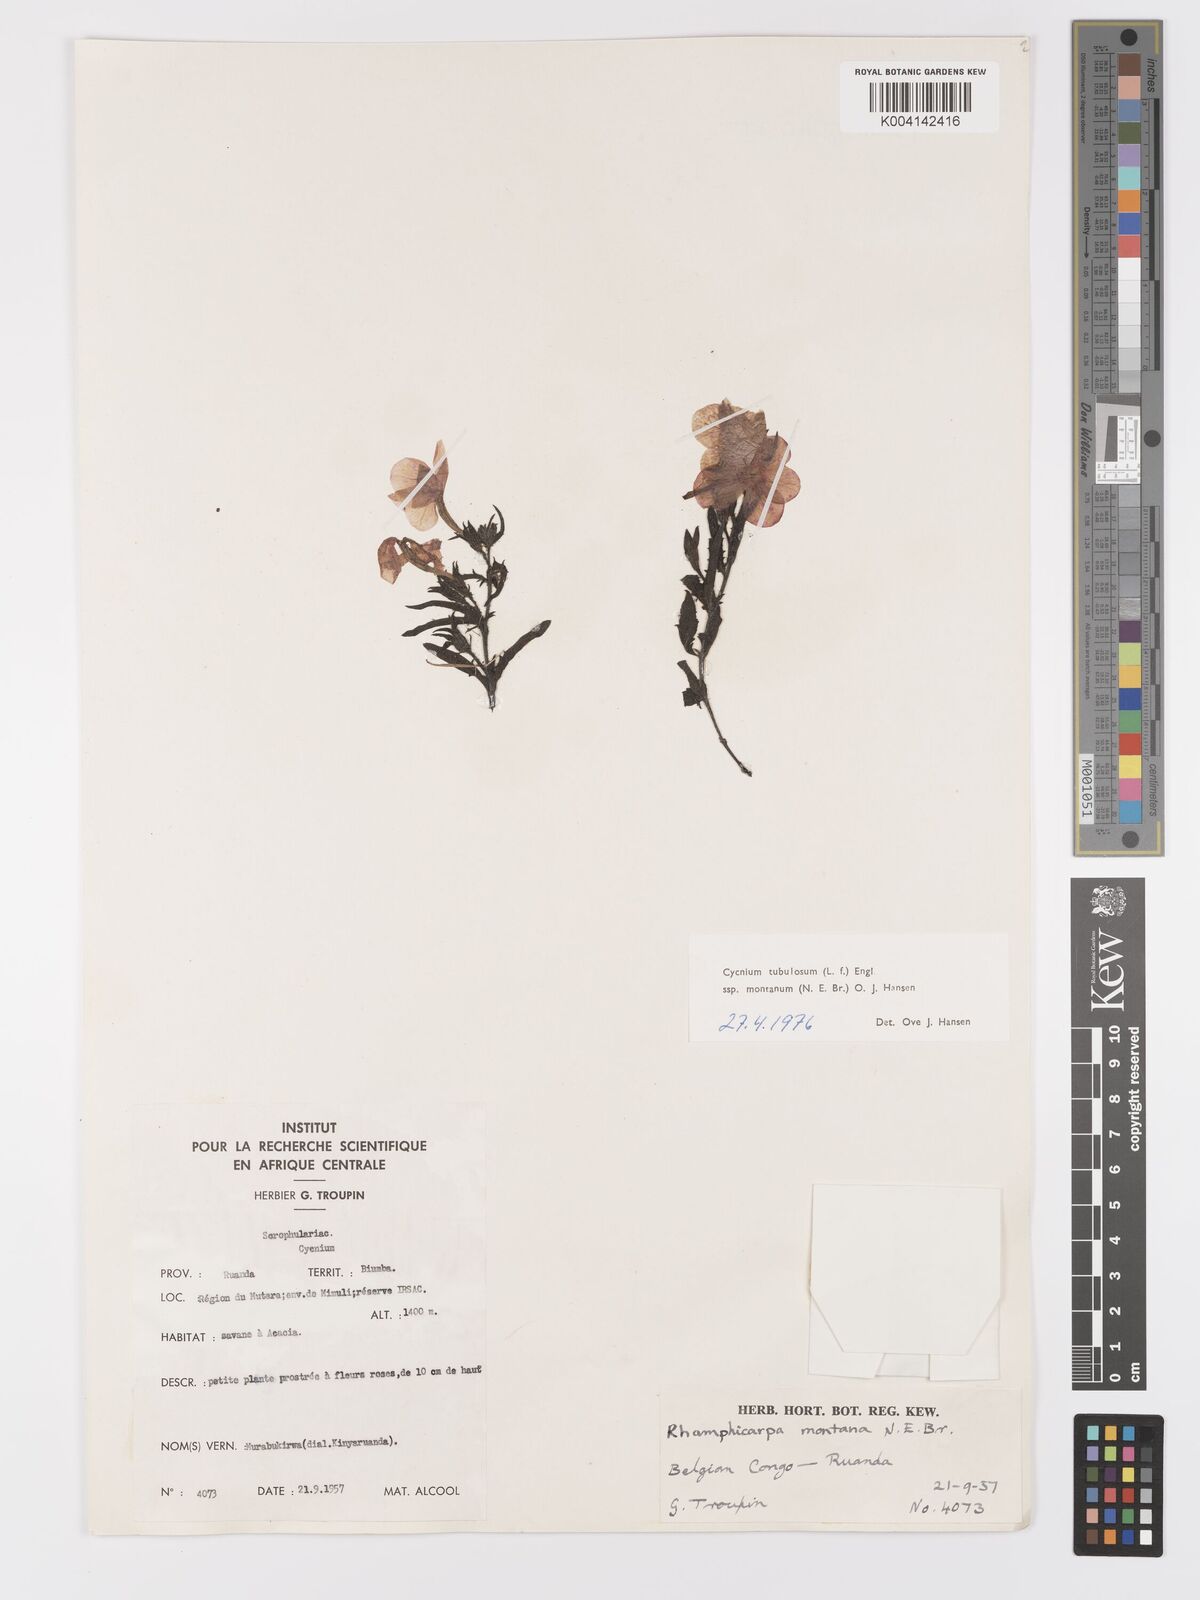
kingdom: Plantae
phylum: Tracheophyta
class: Magnoliopsida
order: Lamiales
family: Orobanchaceae
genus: Cycnium
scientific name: Cycnium tubulosum
